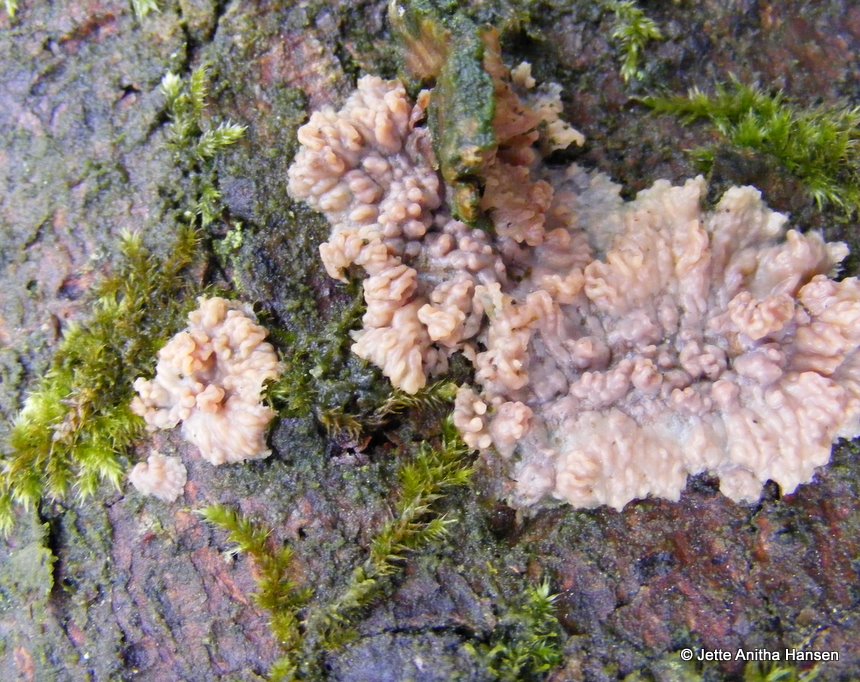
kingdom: Fungi
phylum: Basidiomycota
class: Agaricomycetes
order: Polyporales
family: Meruliaceae
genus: Phlebia
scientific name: Phlebia radiata
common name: stråle-åresvamp
